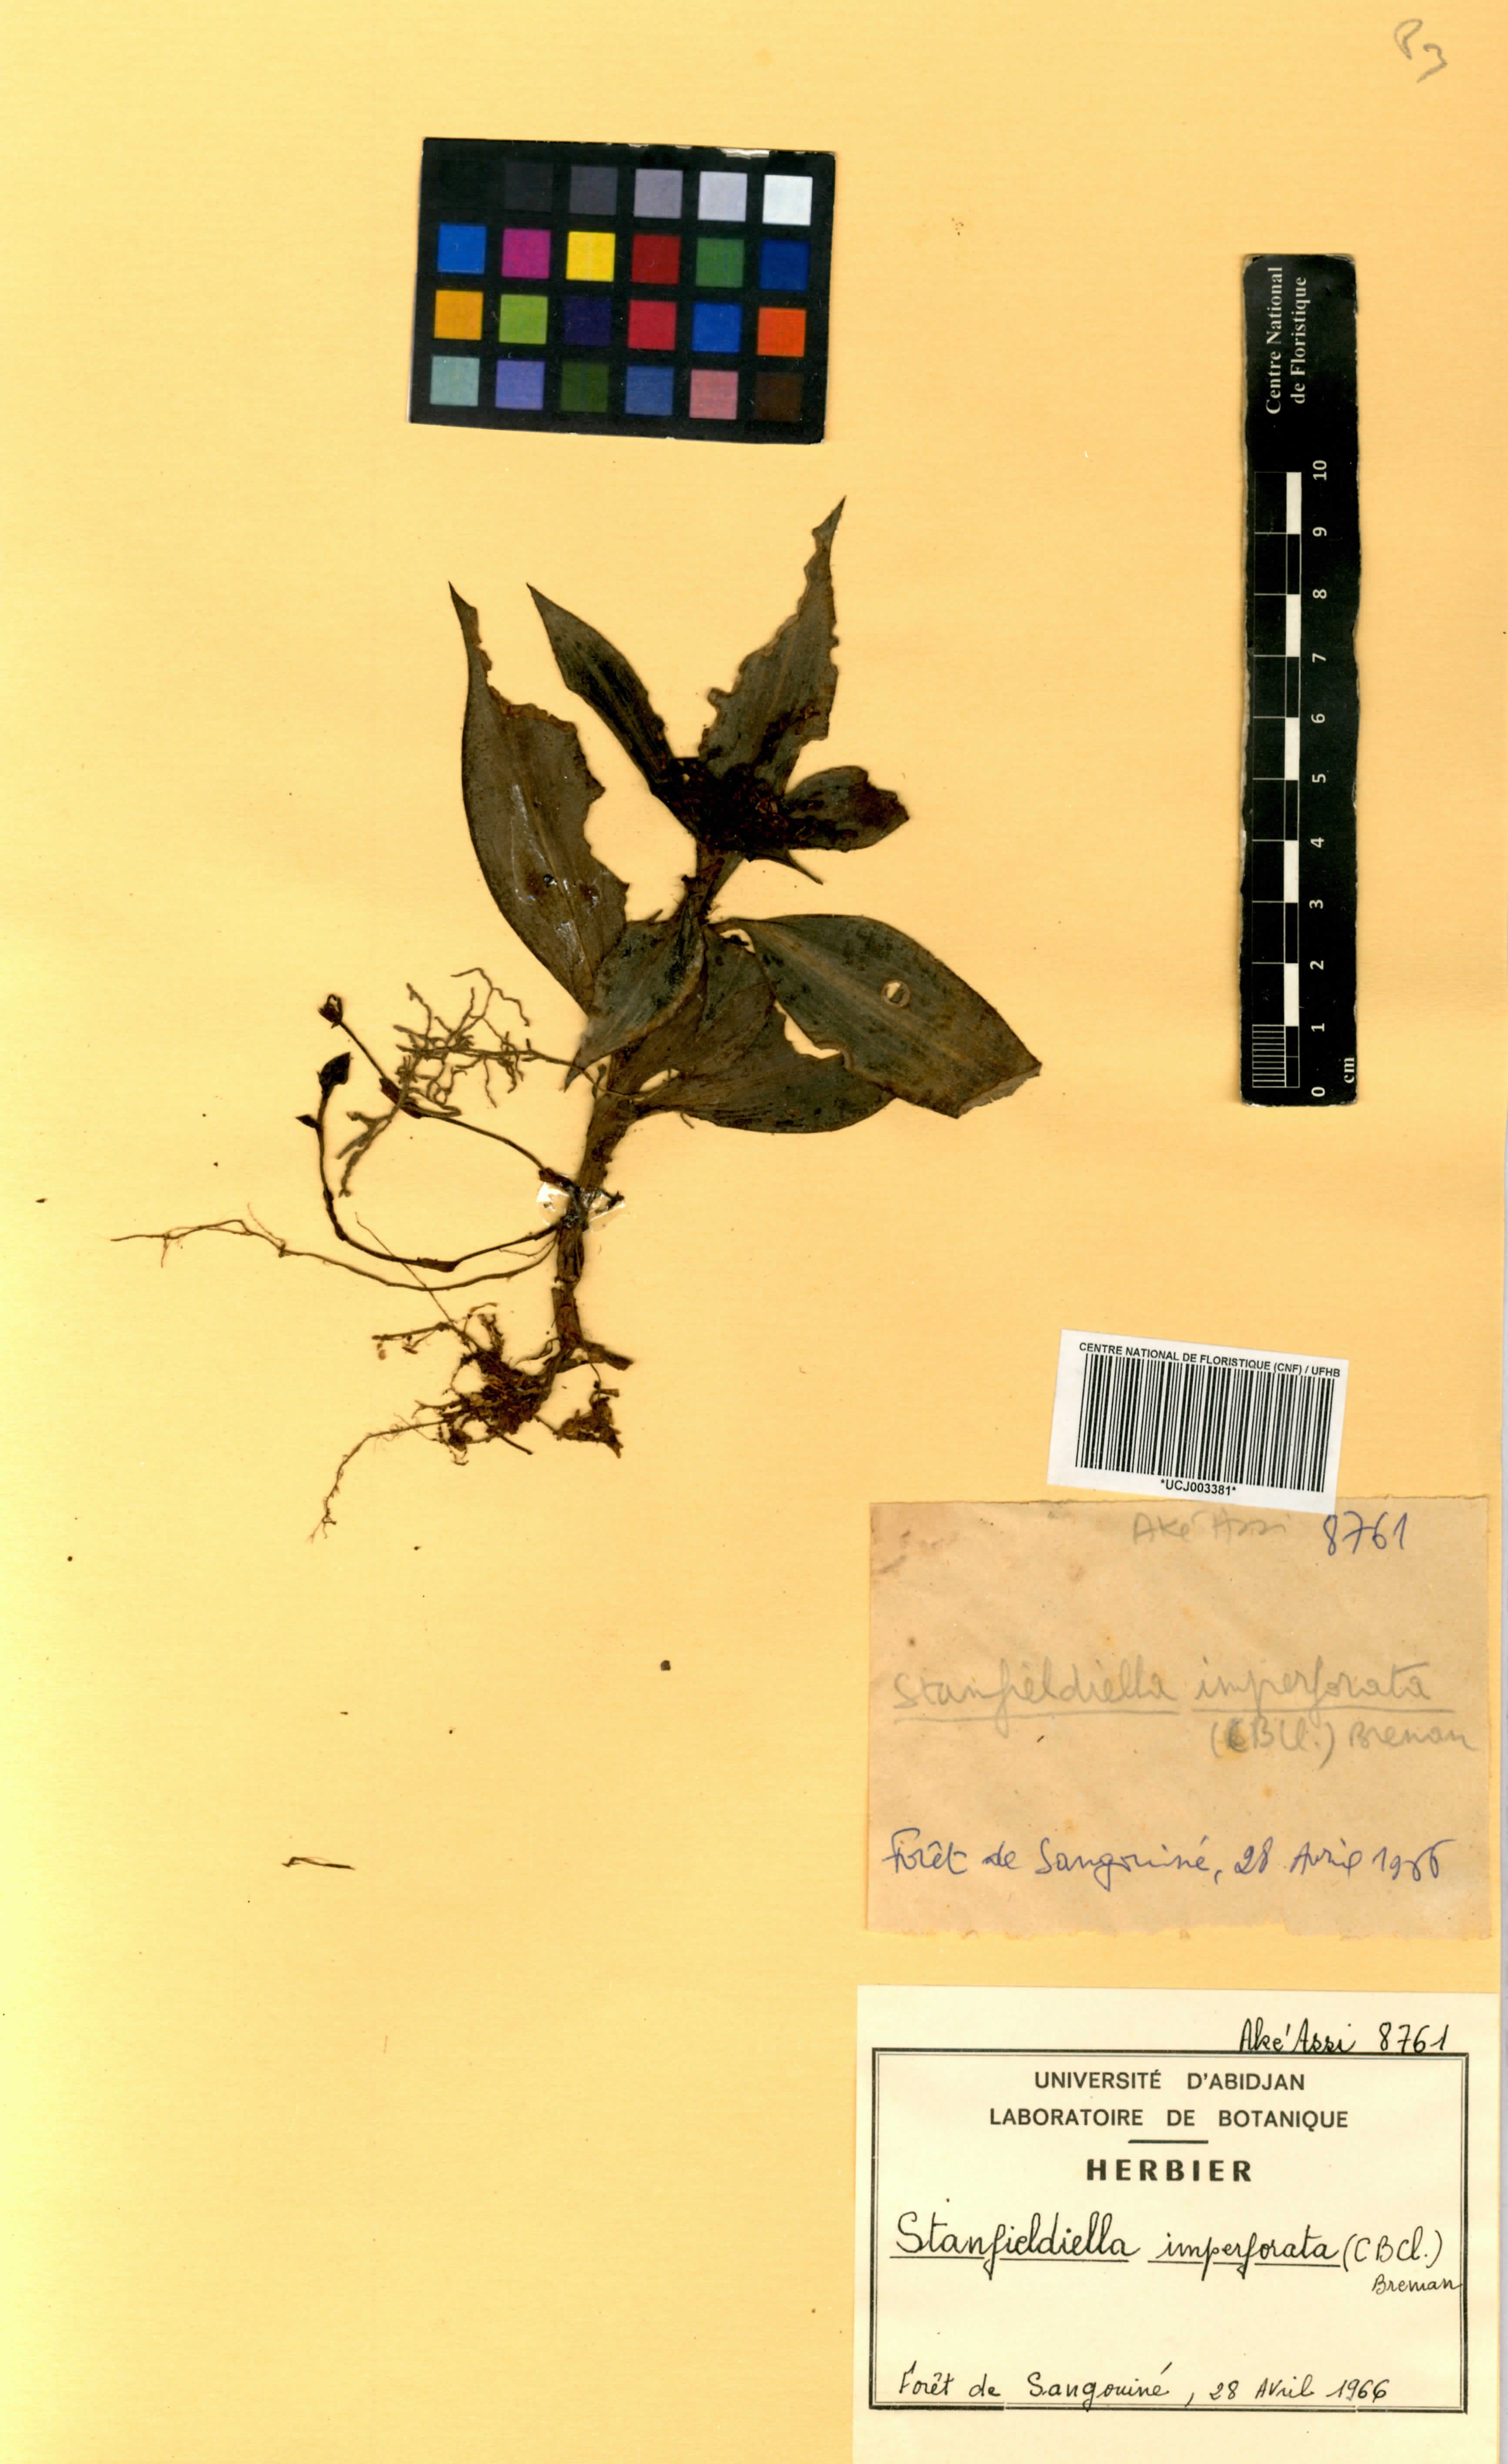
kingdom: Plantae
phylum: Tracheophyta
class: Liliopsida
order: Commelinales
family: Commelinaceae
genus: Stanfieldiella
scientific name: Stanfieldiella imperforata
